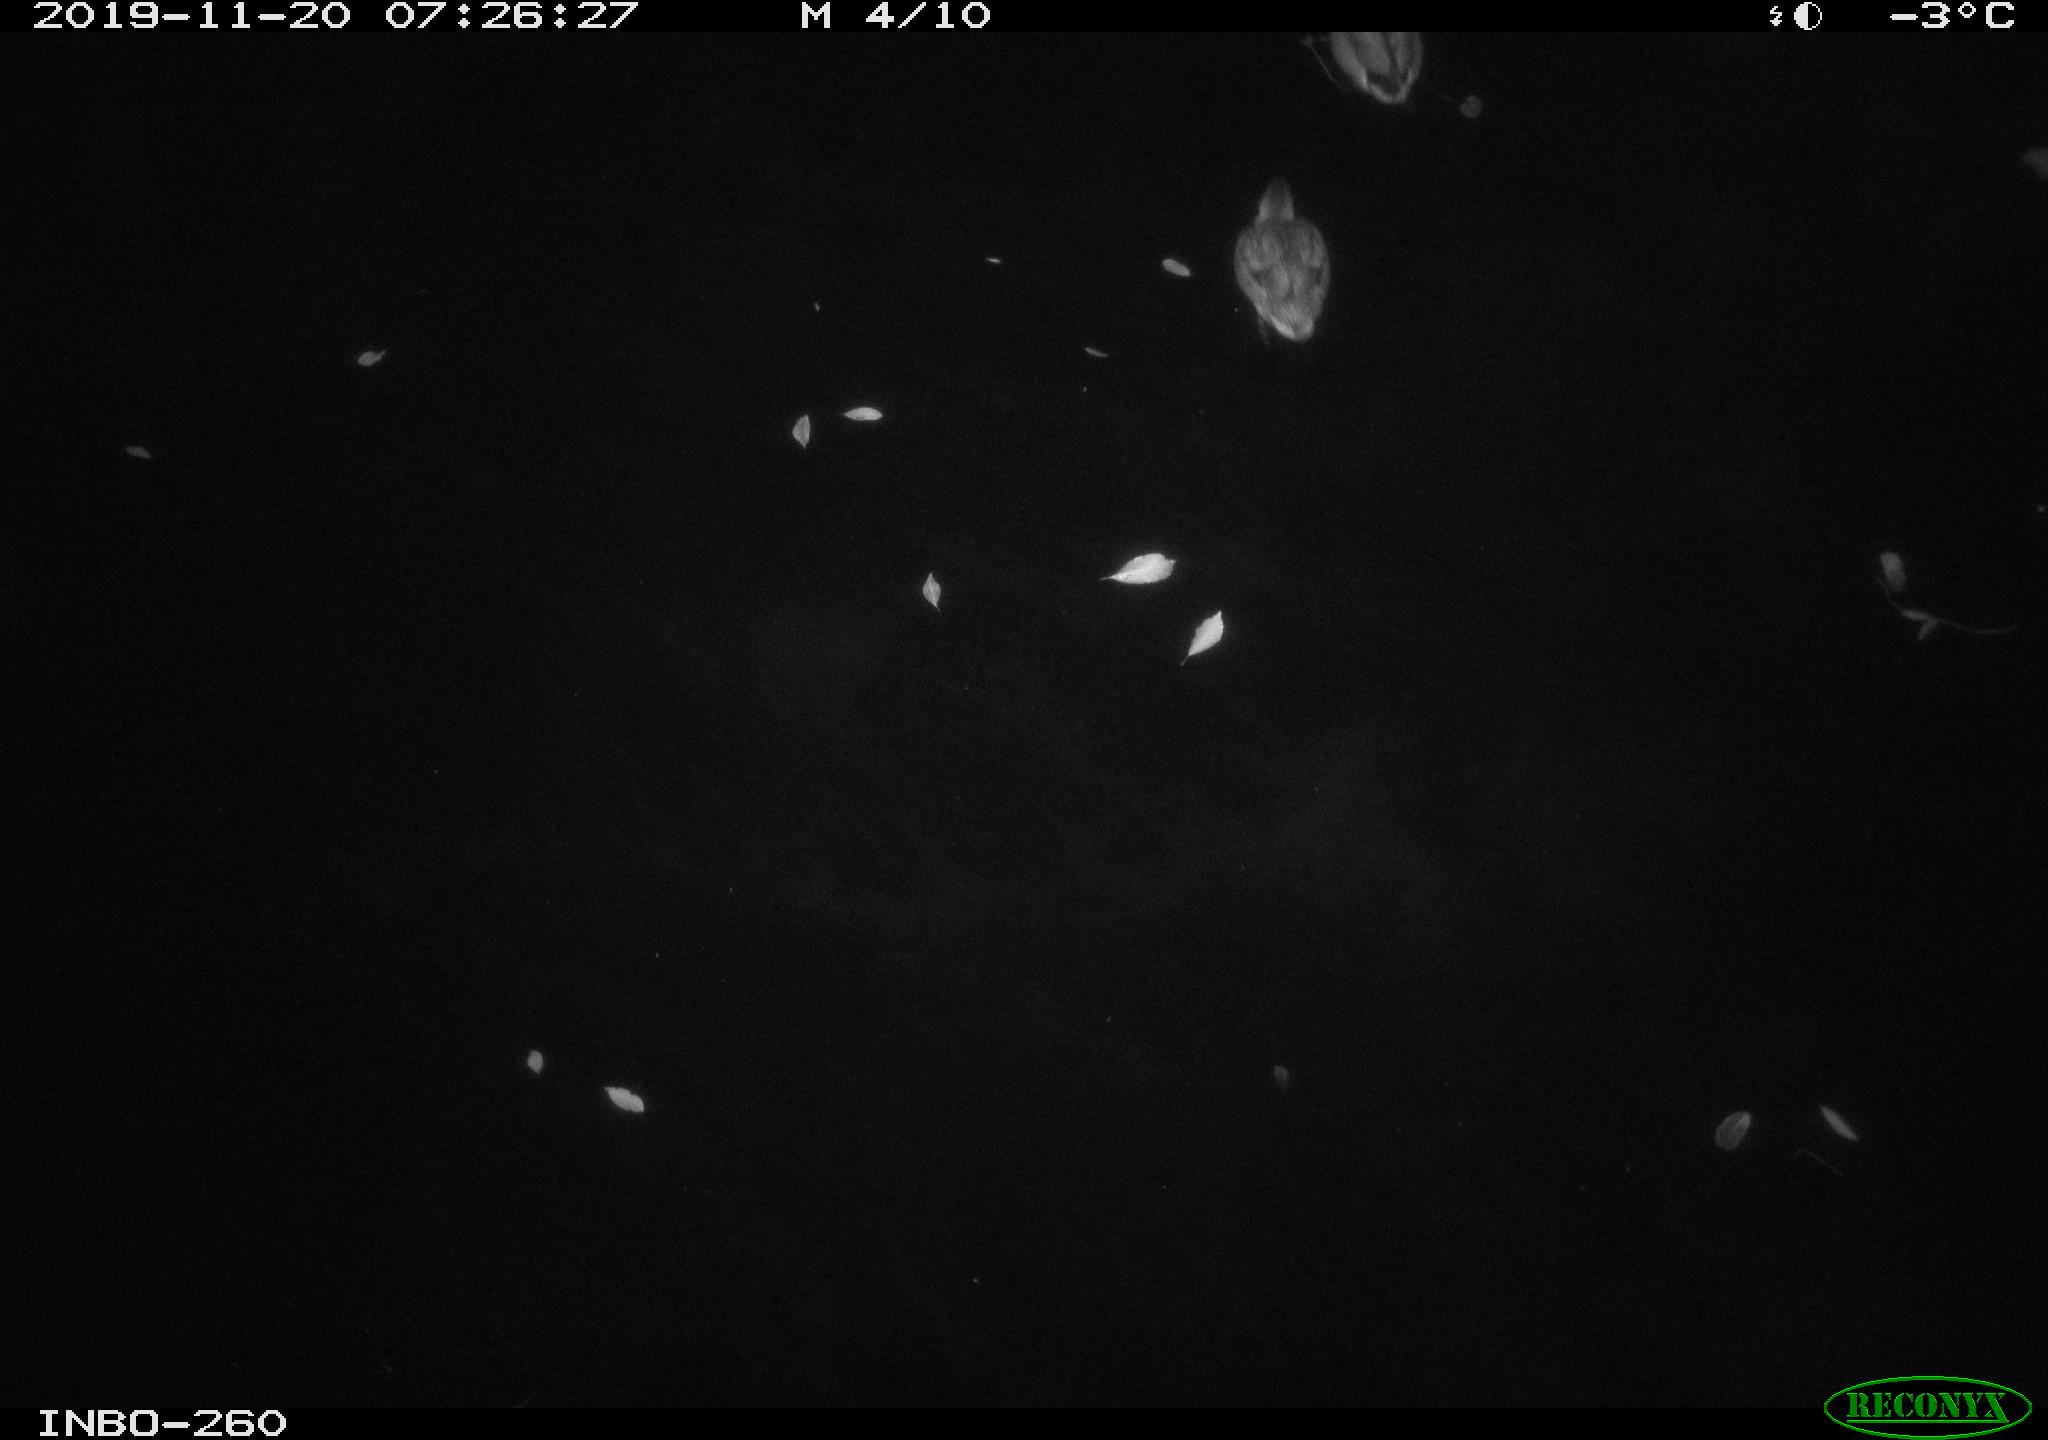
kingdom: Animalia
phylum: Chordata
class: Aves
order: Anseriformes
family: Anatidae
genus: Anas
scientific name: Anas platyrhynchos
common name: Mallard
